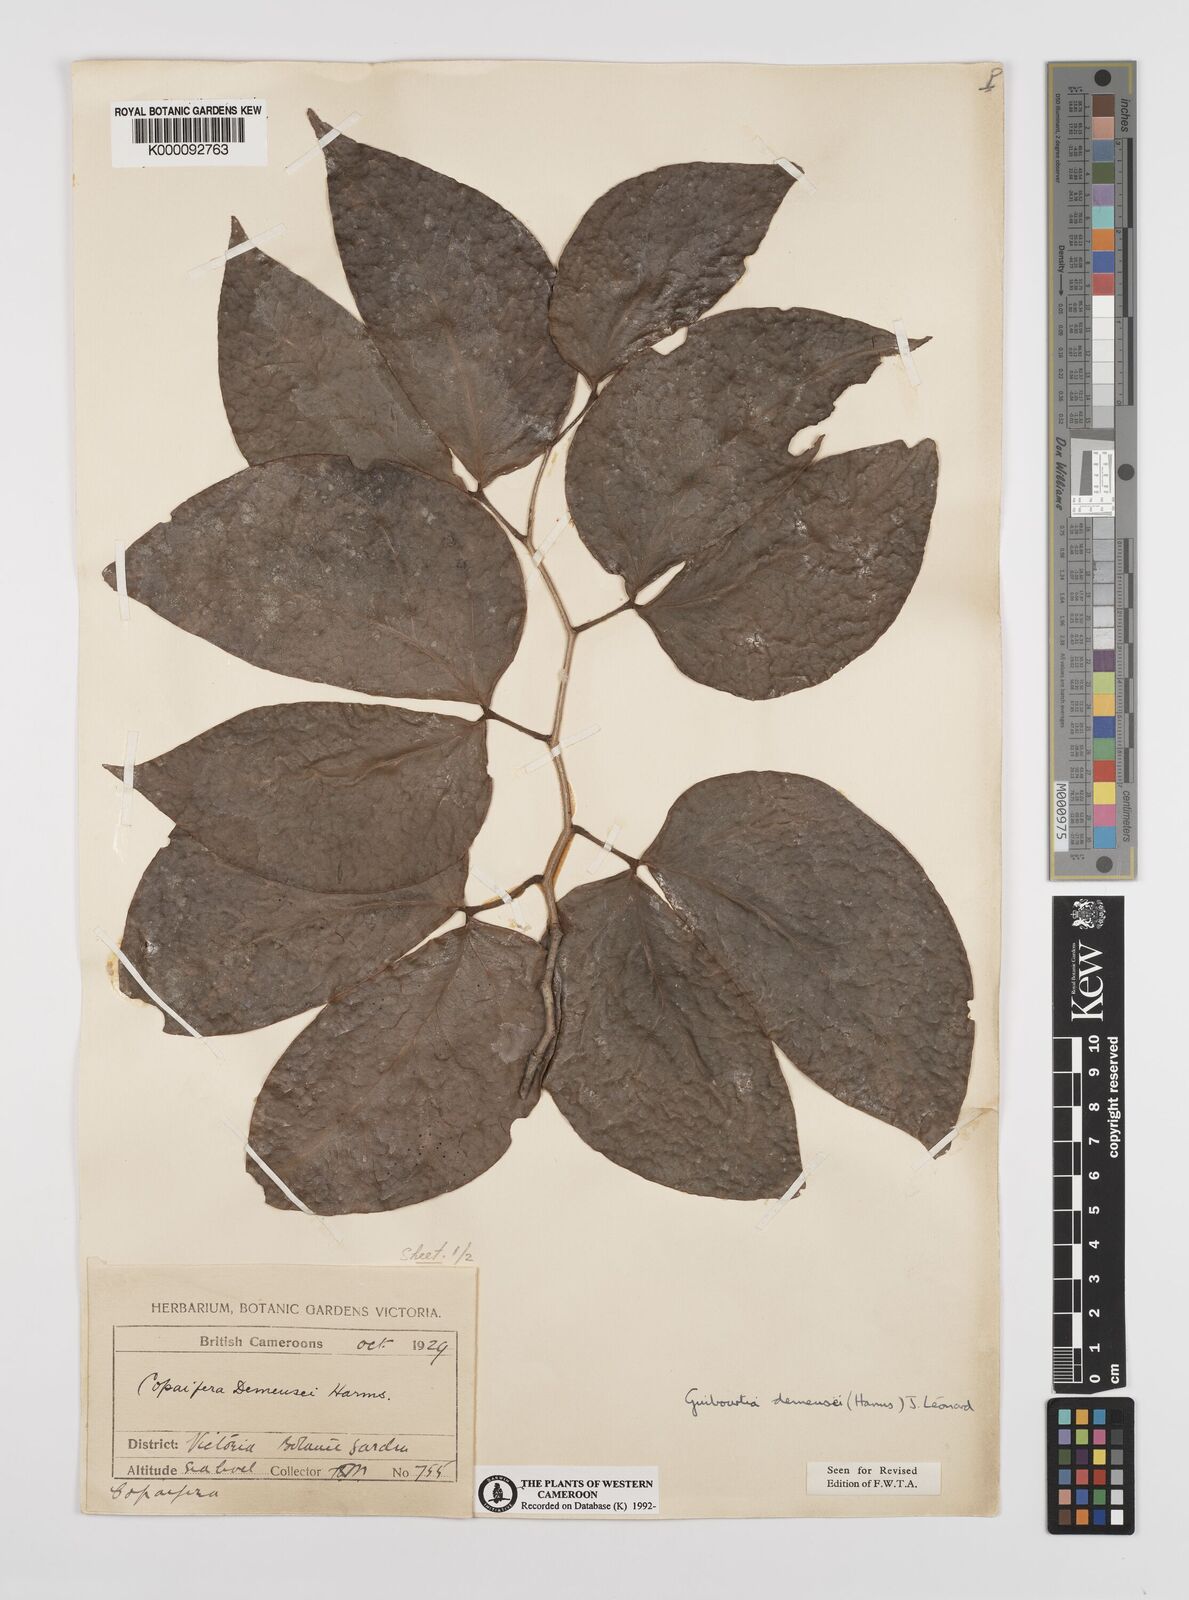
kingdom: Plantae
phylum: Tracheophyta
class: Magnoliopsida
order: Fabales
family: Fabaceae
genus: Guibourtia
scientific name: Guibourtia
